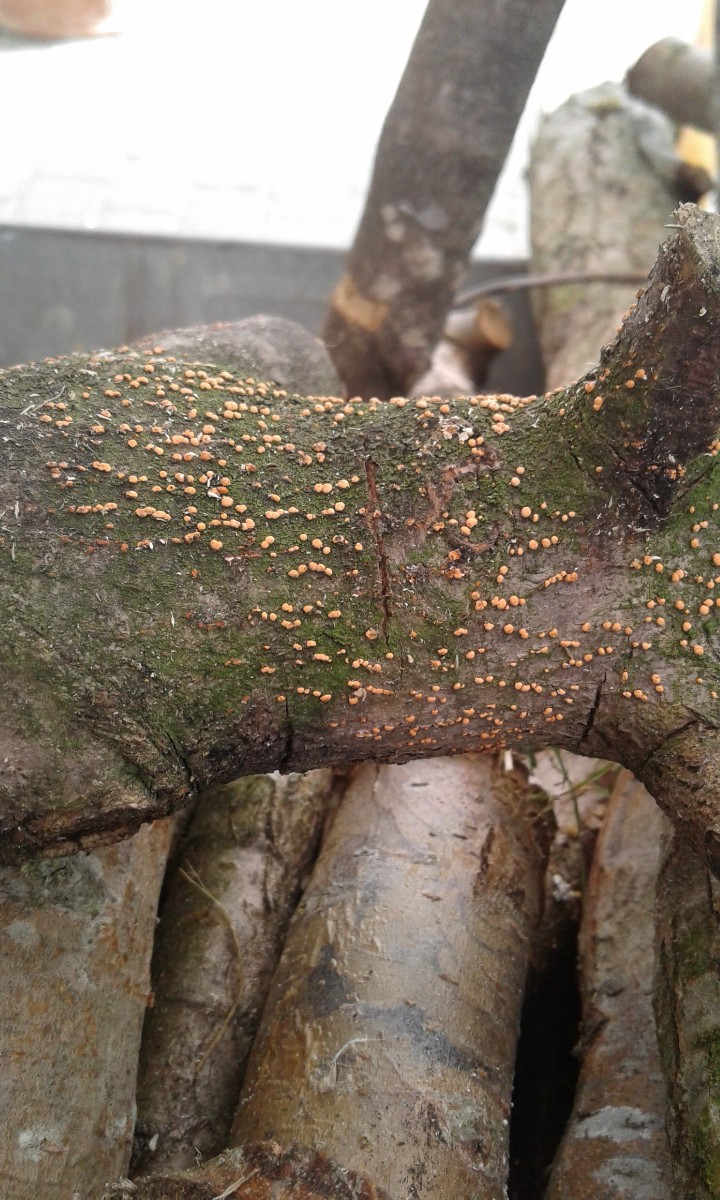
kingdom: Fungi
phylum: Ascomycota
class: Sordariomycetes
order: Hypocreales
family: Nectriaceae
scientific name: Nectriaceae
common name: cinnobersvampfamilien
